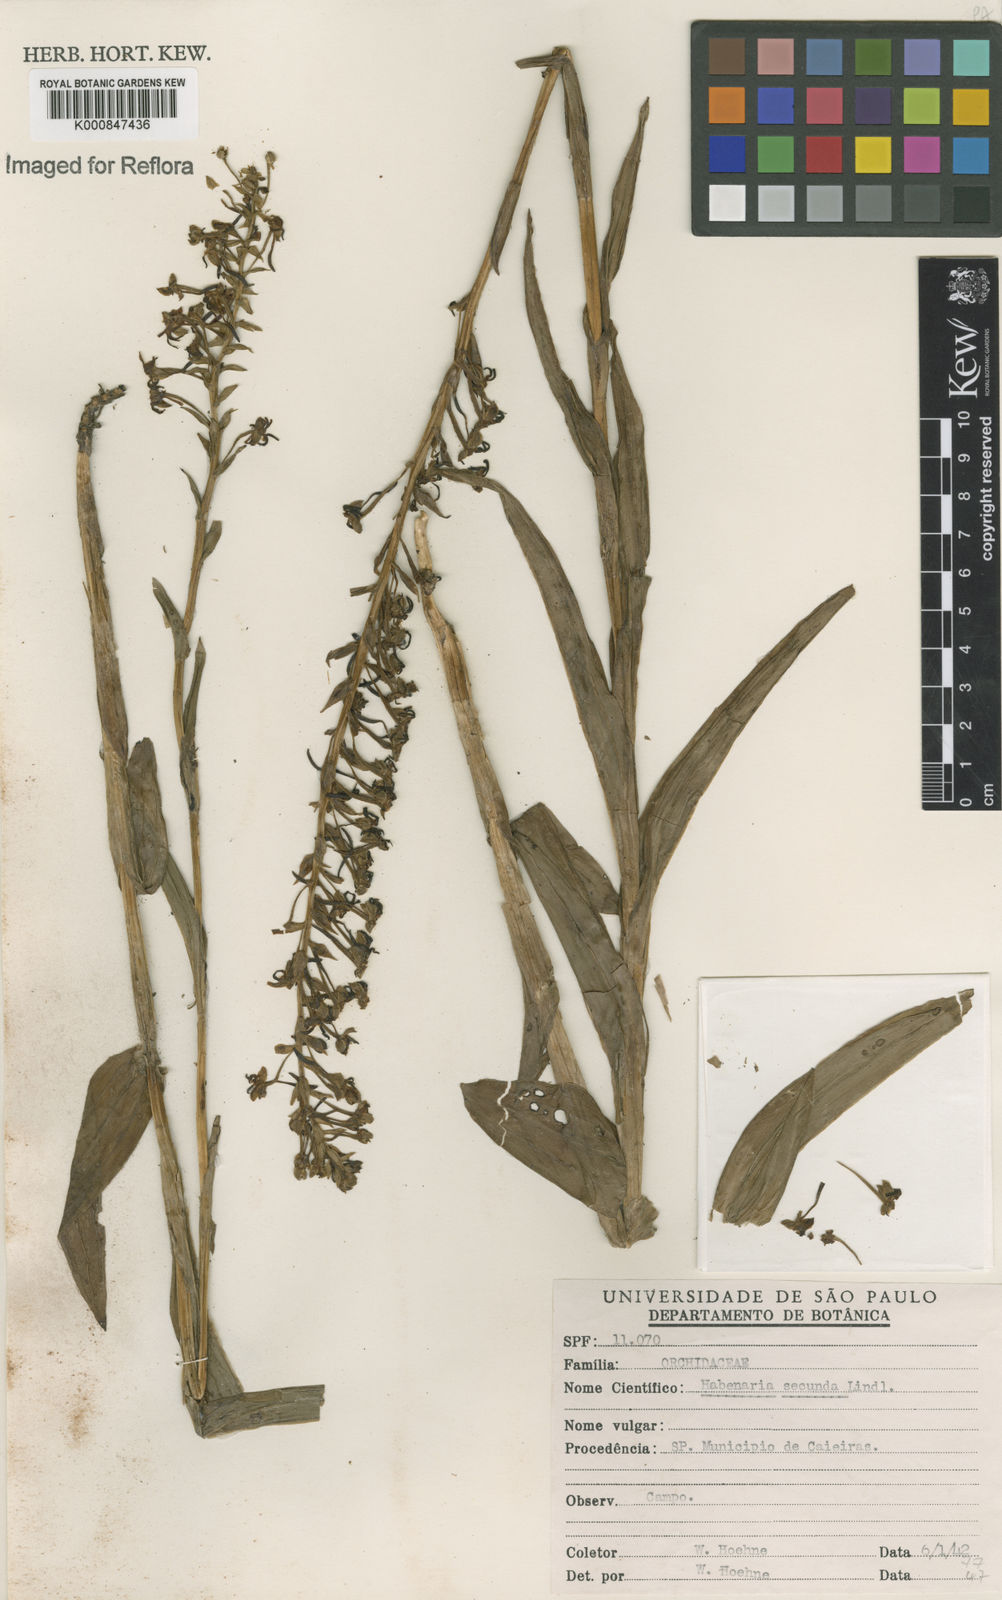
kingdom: Plantae
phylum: Tracheophyta
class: Liliopsida
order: Asparagales
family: Orchidaceae
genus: Habenaria
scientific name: Habenaria paranaensis
